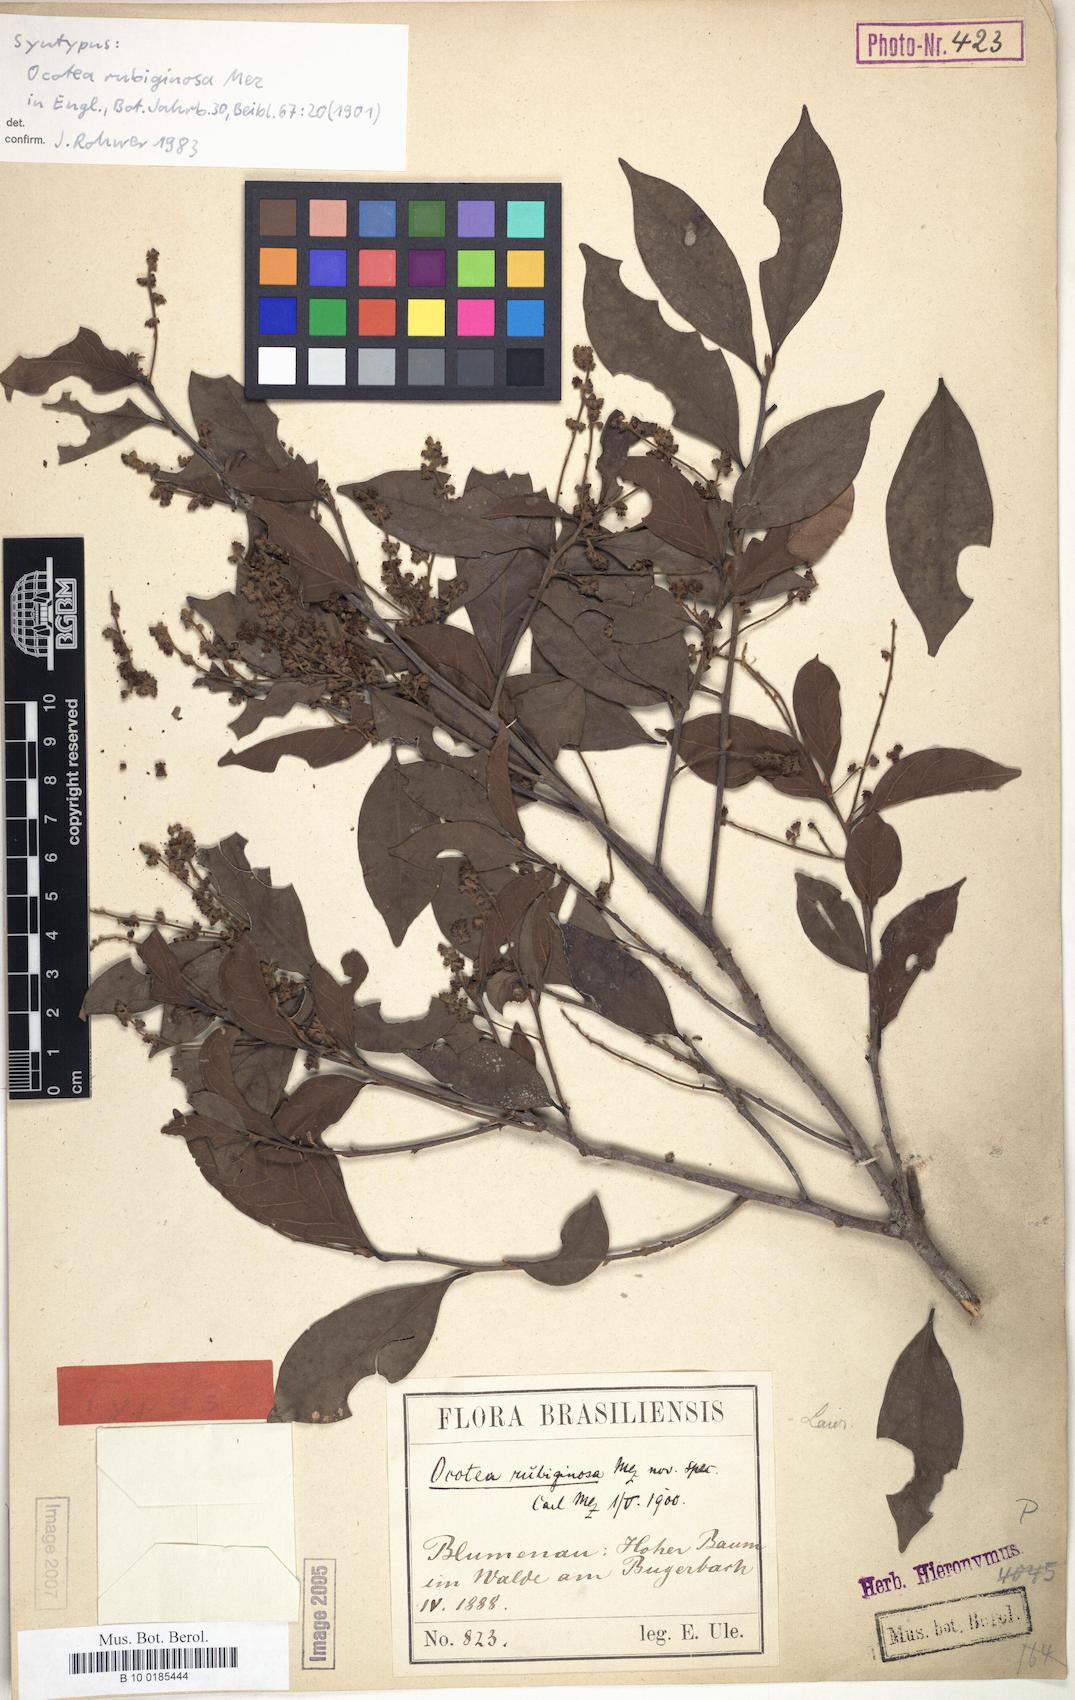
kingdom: Plantae
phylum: Tracheophyta
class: Magnoliopsida
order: Laurales
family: Lauraceae
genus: Ocotea
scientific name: Ocotea dispersa
